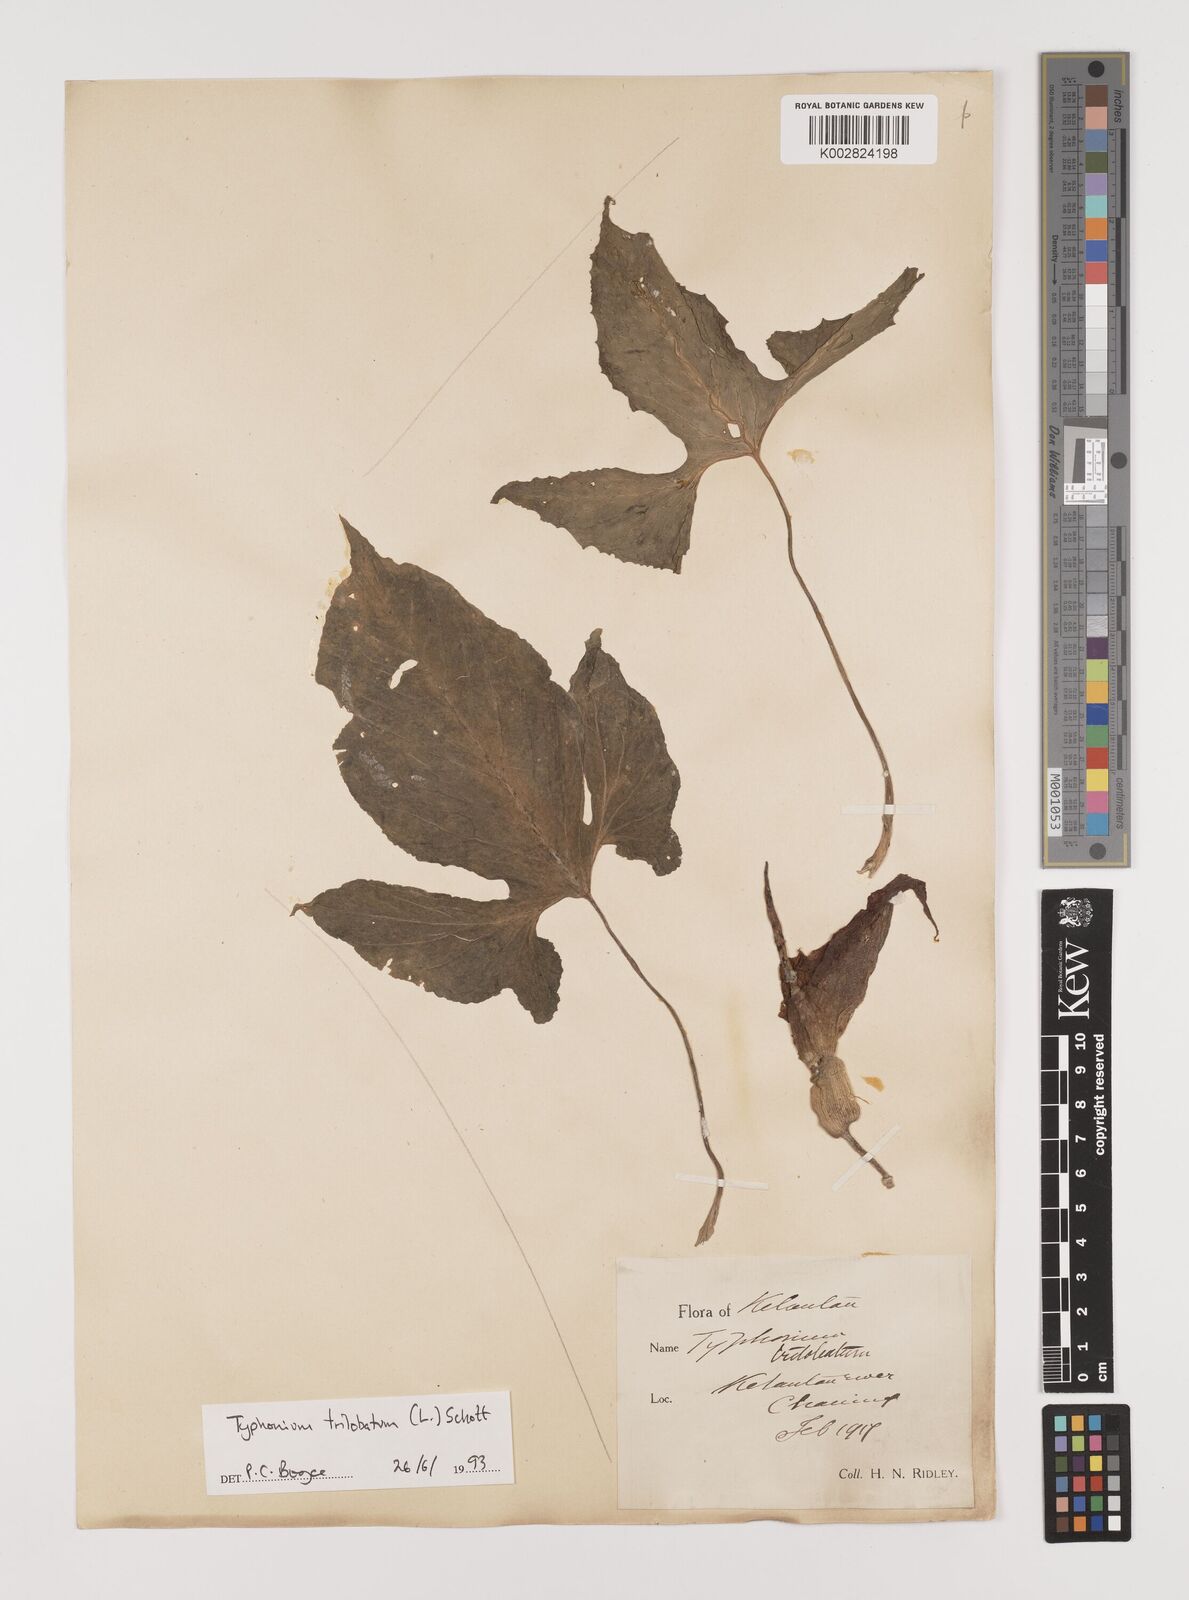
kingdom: Plantae
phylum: Tracheophyta
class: Liliopsida
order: Alismatales
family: Araceae
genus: Typhonium
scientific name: Typhonium trilobatum
